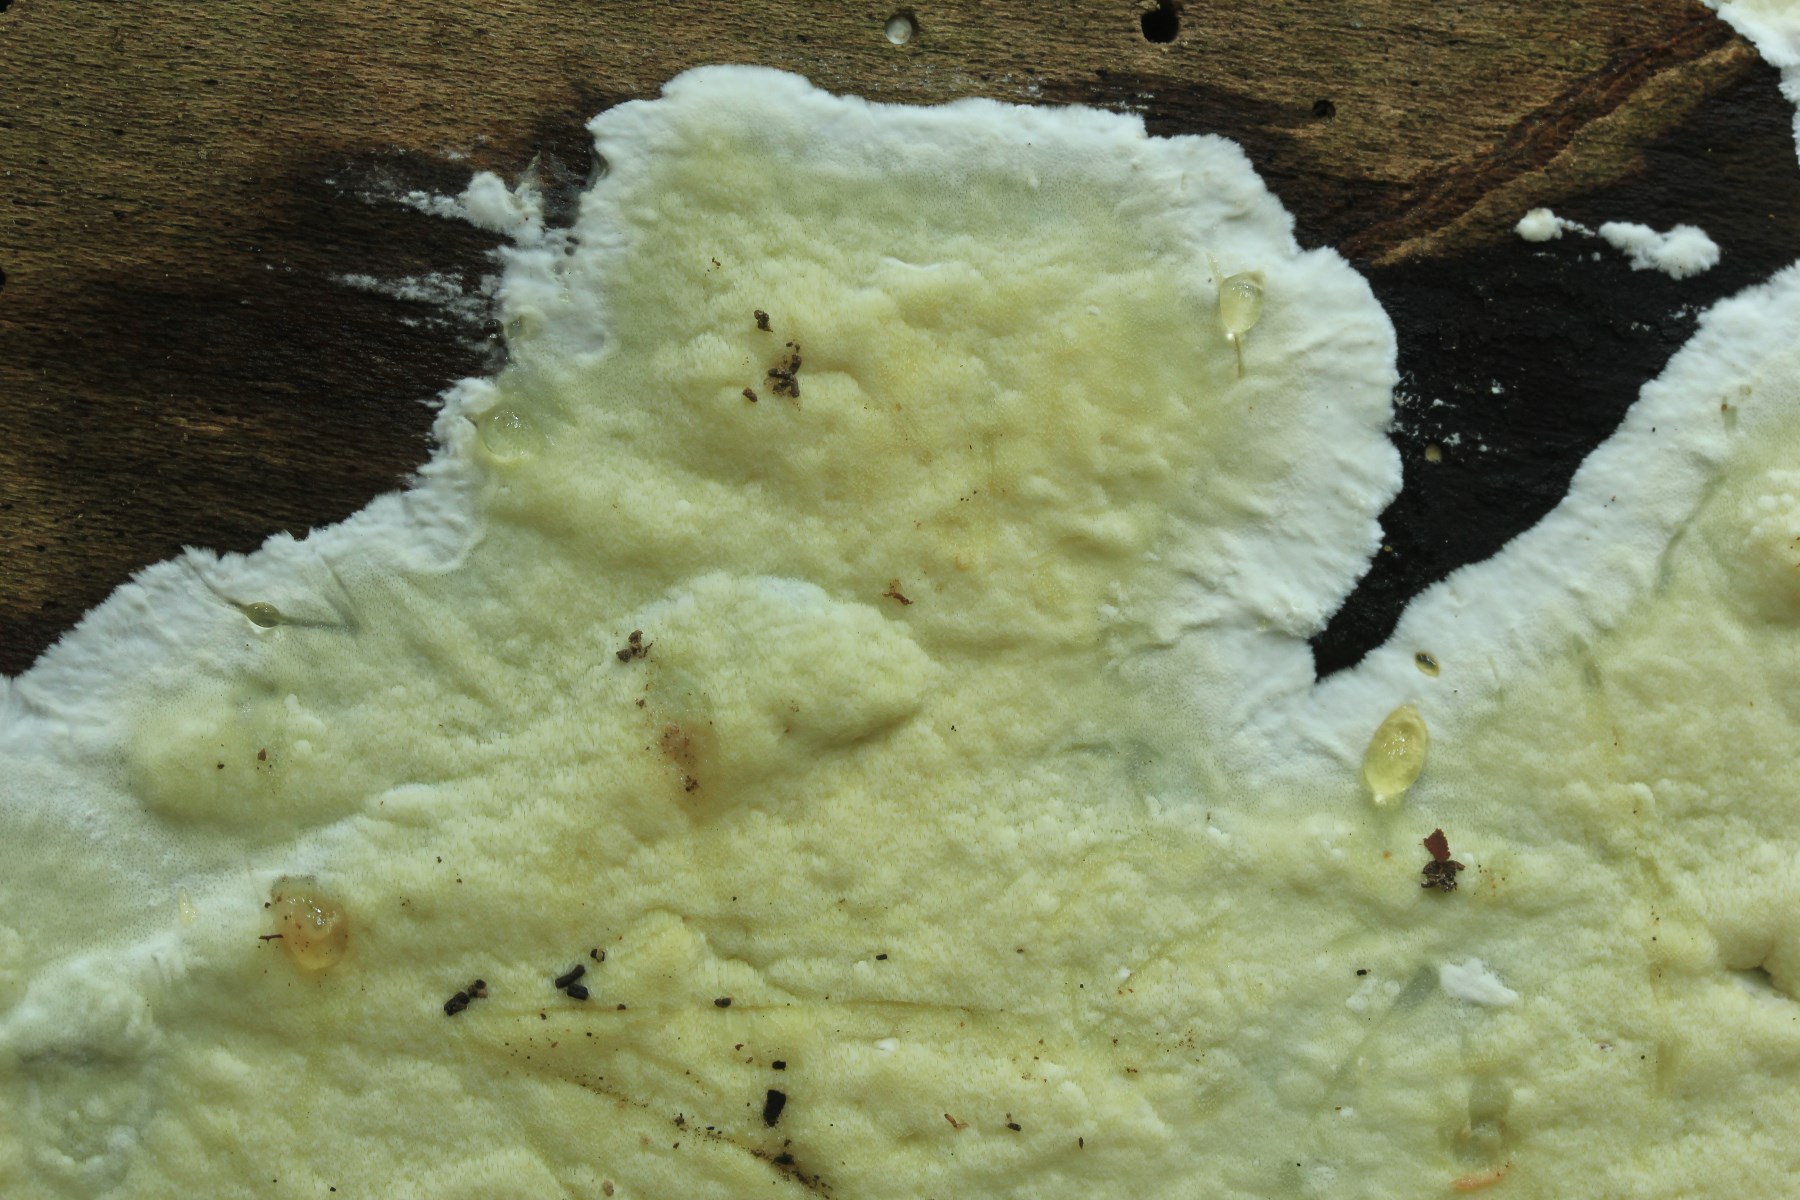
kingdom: Fungi
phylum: Basidiomycota
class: Agaricomycetes
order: Polyporales
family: Irpicaceae
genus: Gloeoporus
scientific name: Gloeoporus pannocinctus
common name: grøngul foldporesvamp
